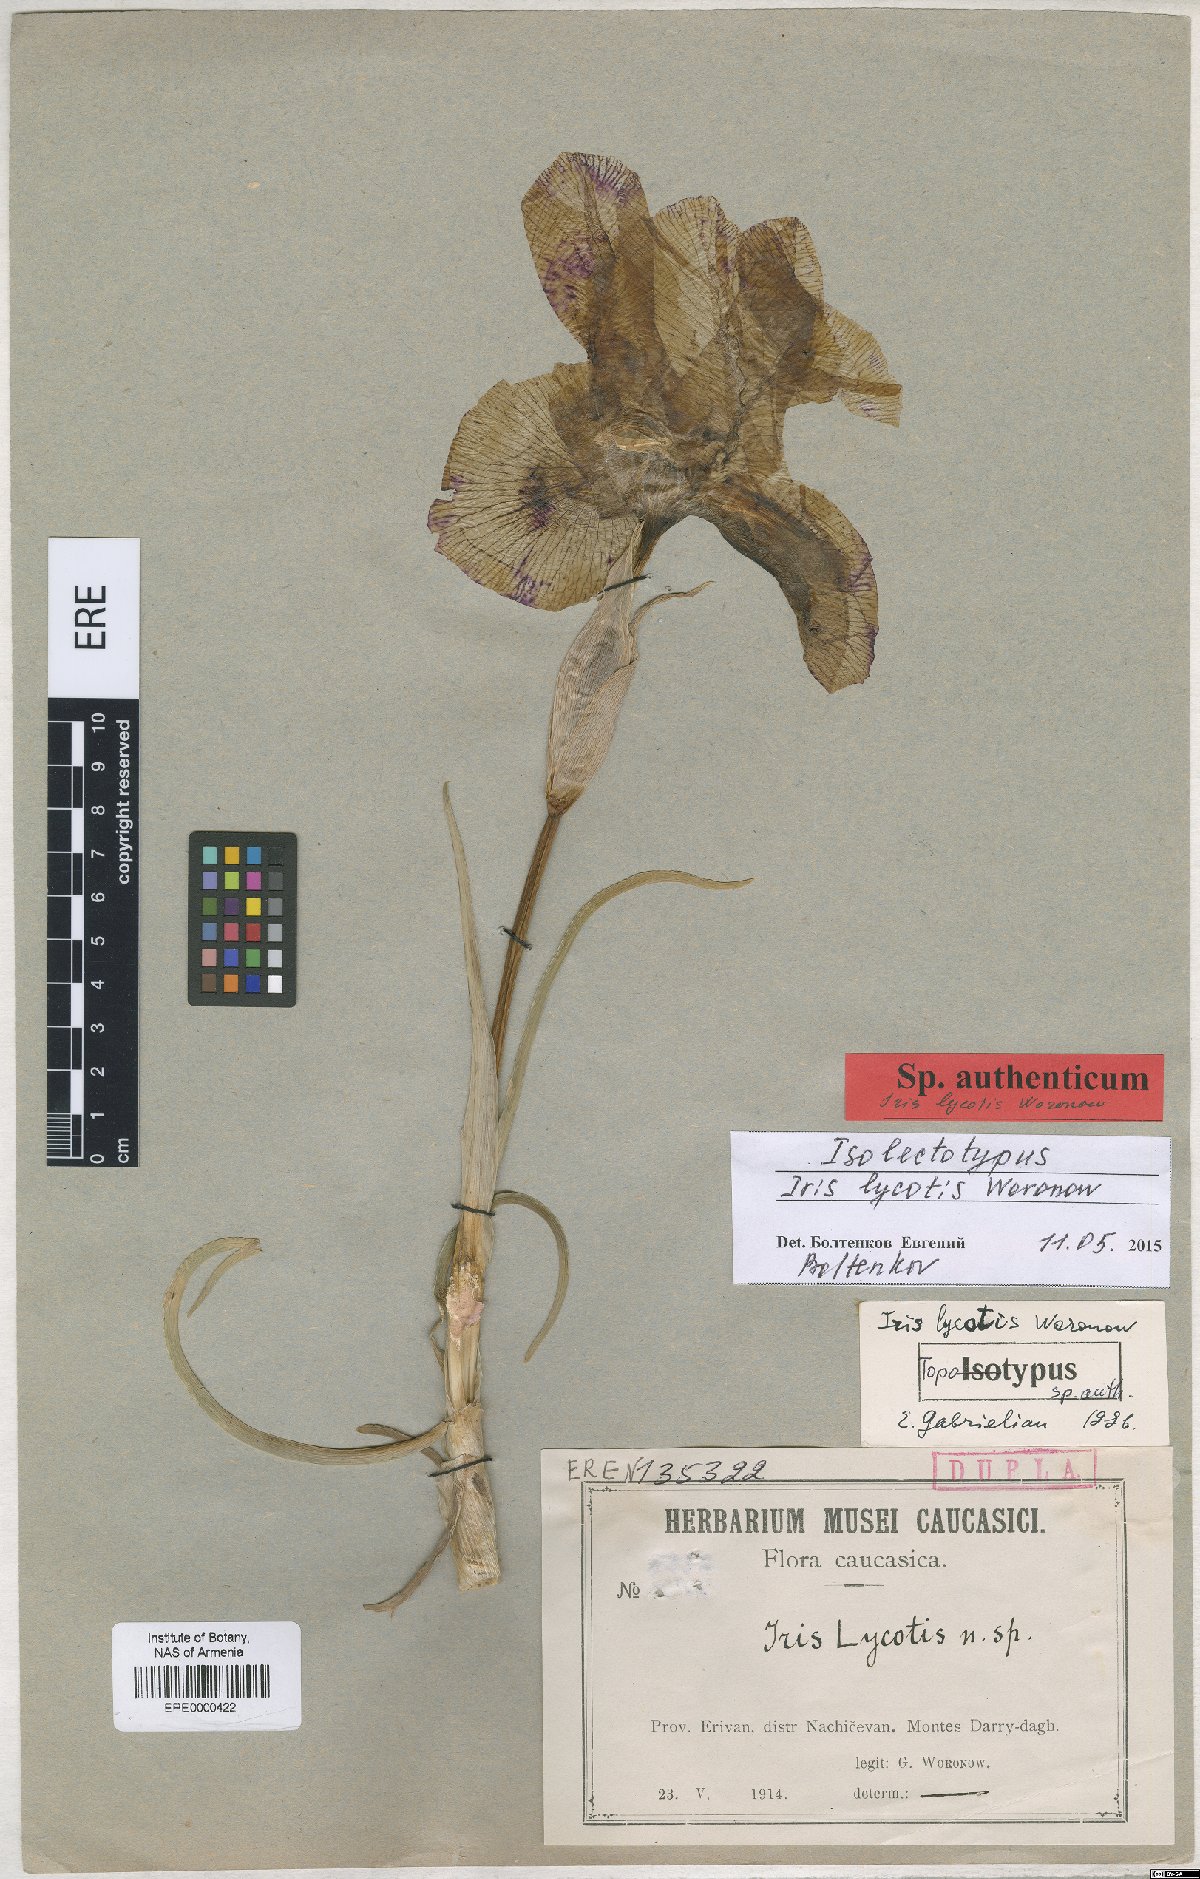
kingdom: Plantae
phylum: Tracheophyta
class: Liliopsida
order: Asparagales
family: Iridaceae
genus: Iris
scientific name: Iris lycotis
